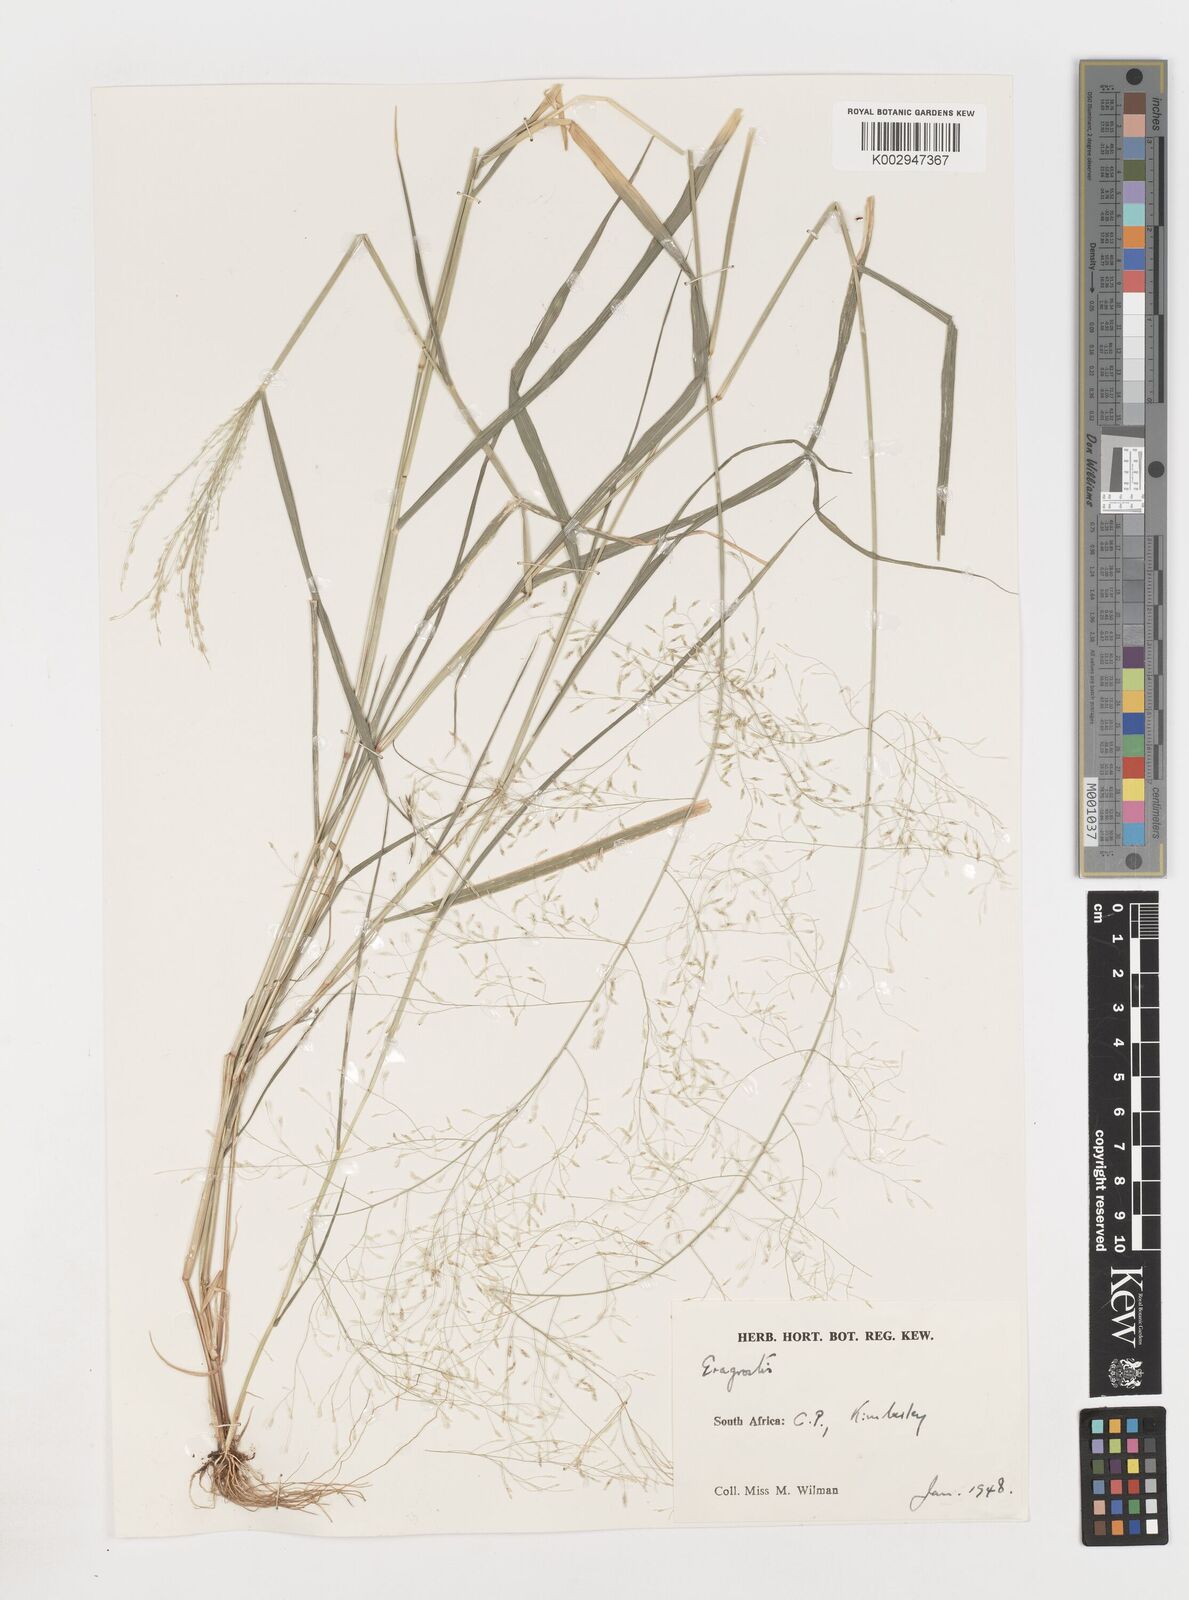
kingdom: Plantae
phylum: Tracheophyta
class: Liliopsida
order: Poales
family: Poaceae
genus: Eragrostis
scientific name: Eragrostis
